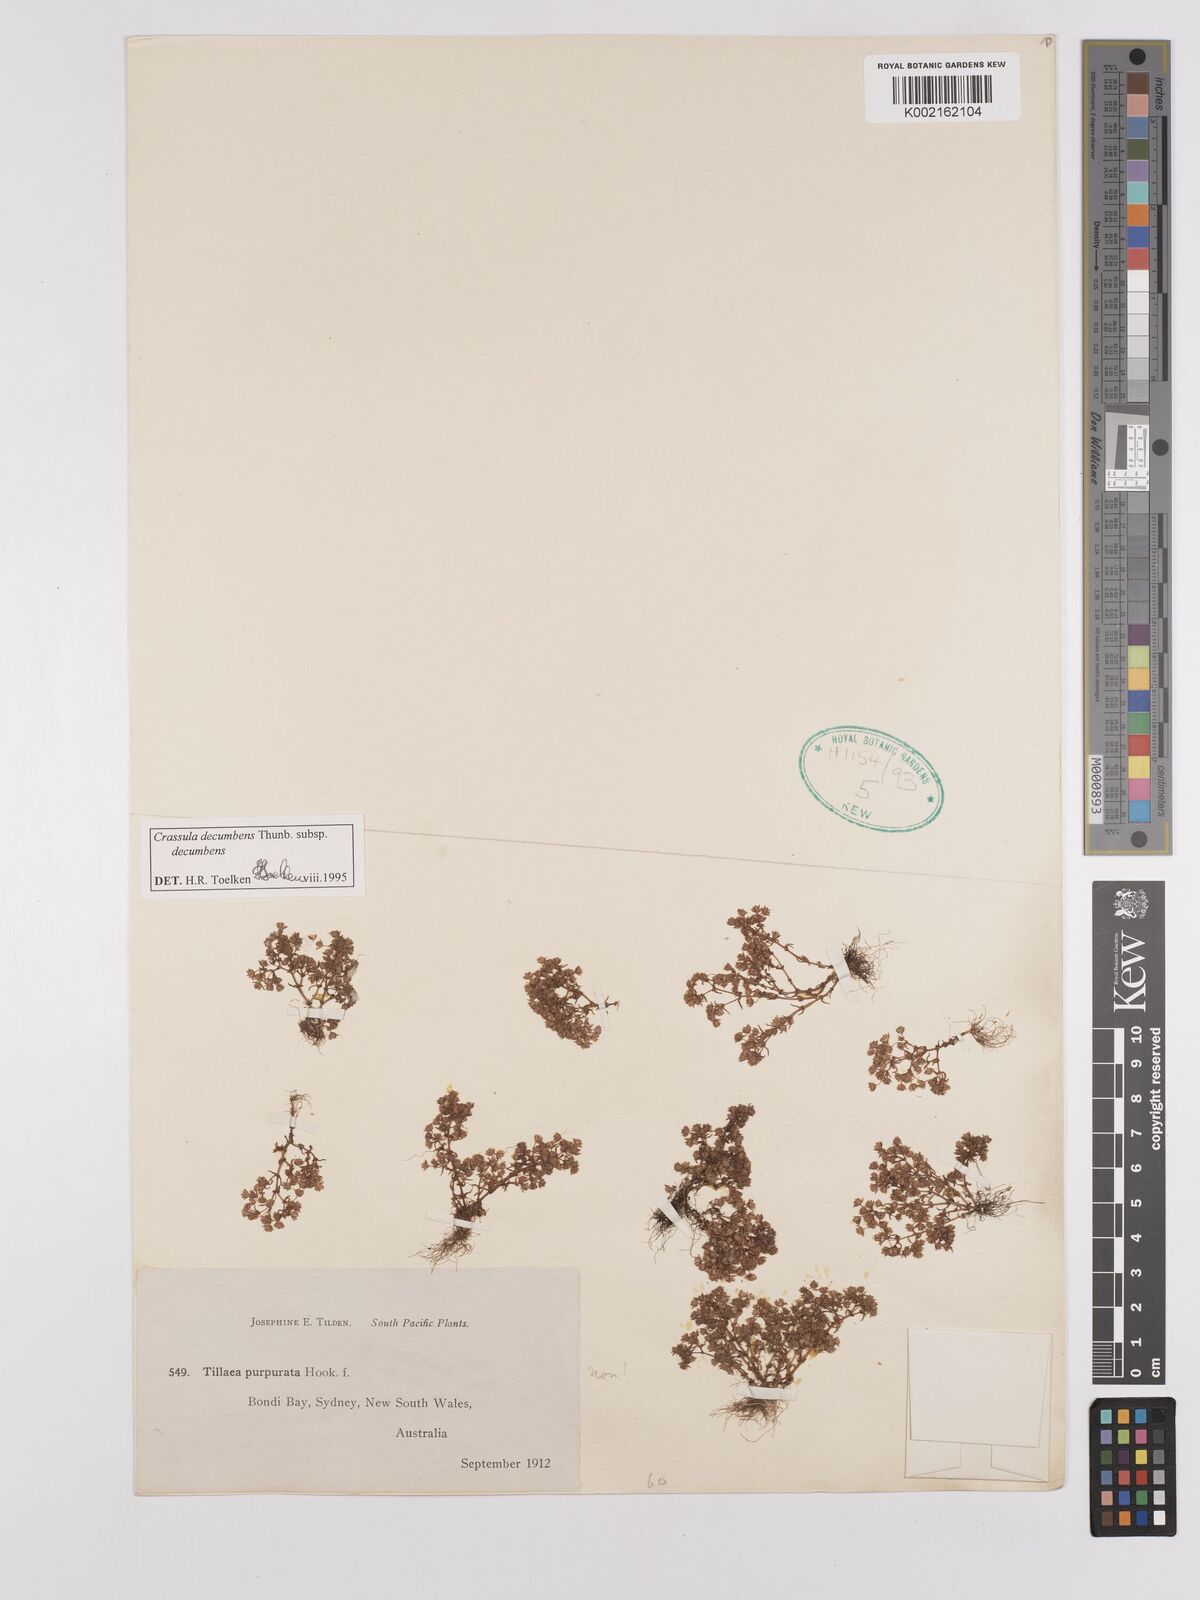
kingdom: Plantae
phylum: Tracheophyta
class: Magnoliopsida
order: Saxifragales
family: Crassulaceae
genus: Crassula
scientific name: Crassula decumbens
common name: Scilly pigmyweed
